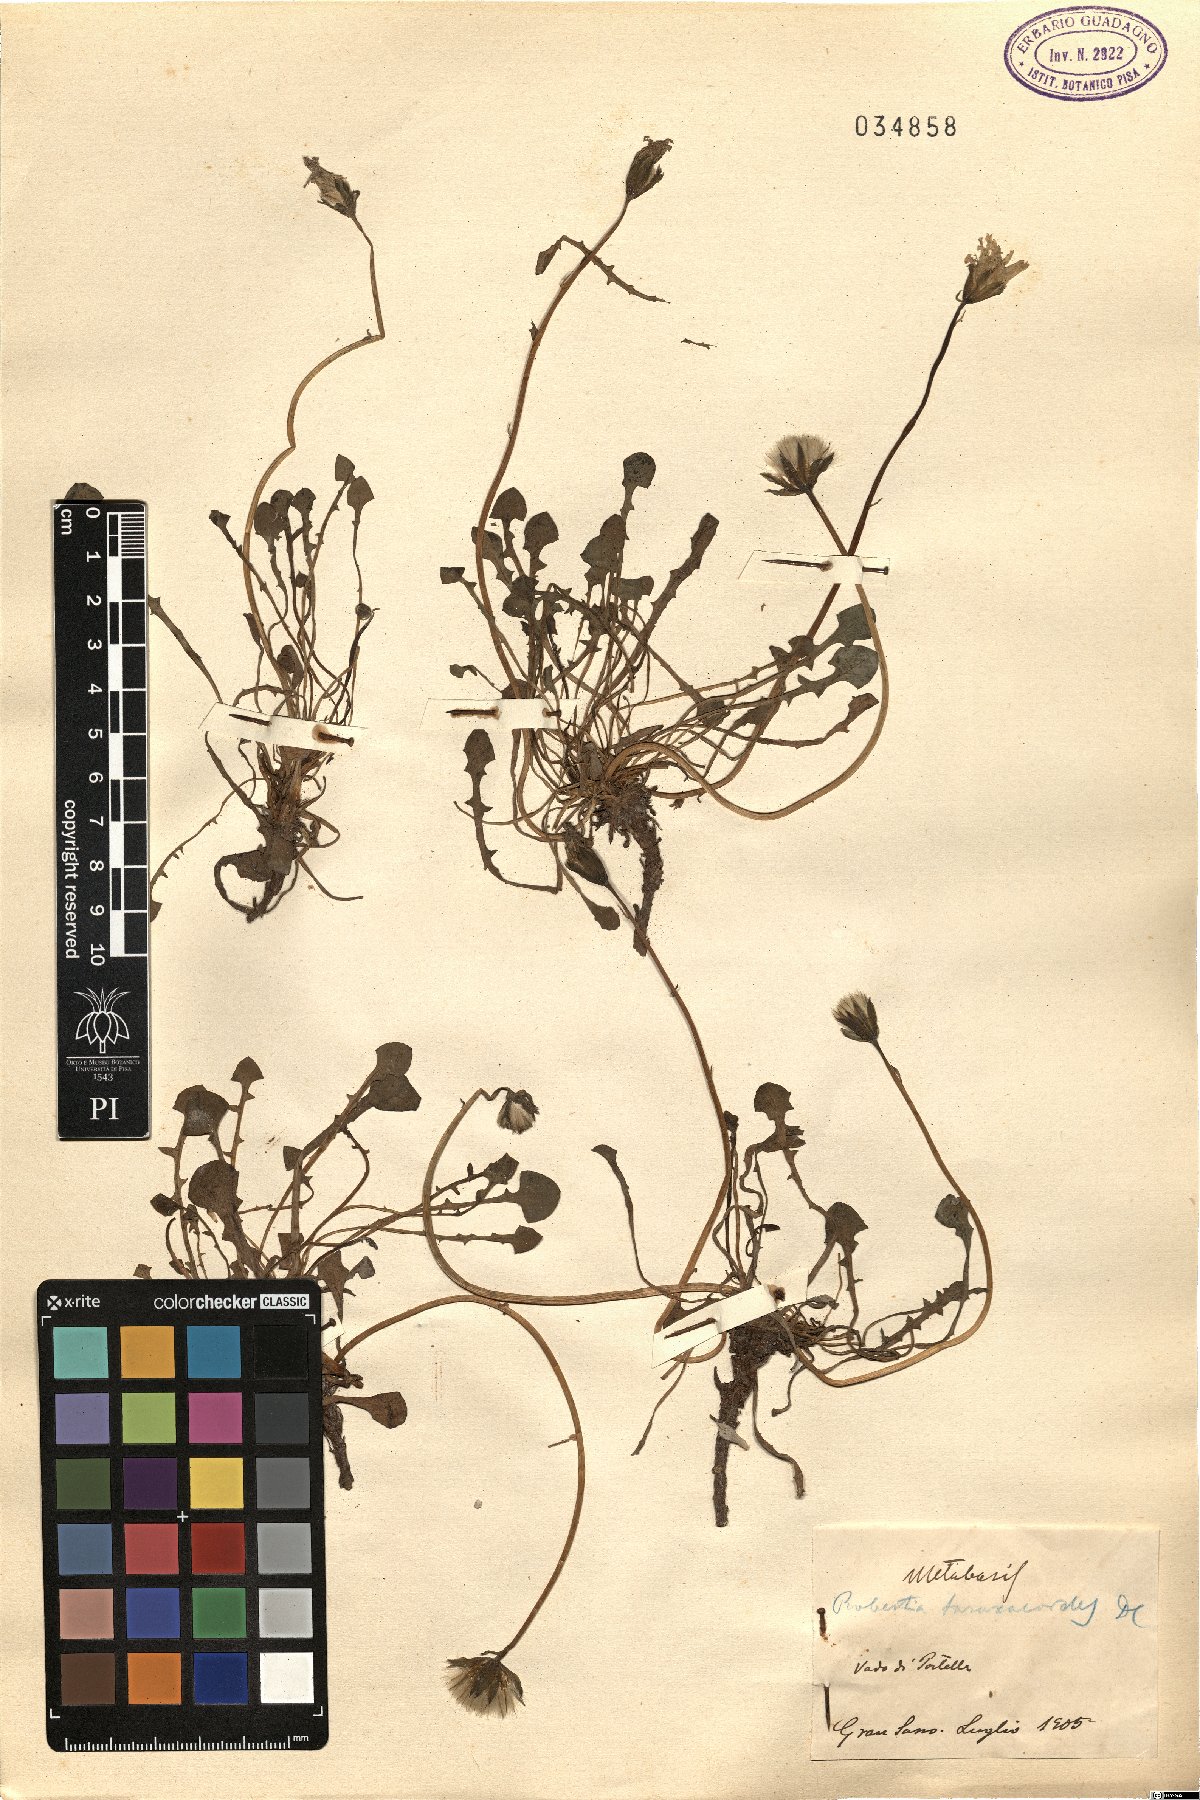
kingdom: Plantae
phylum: Tracheophyta
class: Magnoliopsida
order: Asterales
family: Asteraceae
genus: Hypochaeris
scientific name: Hypochaeris robertia
